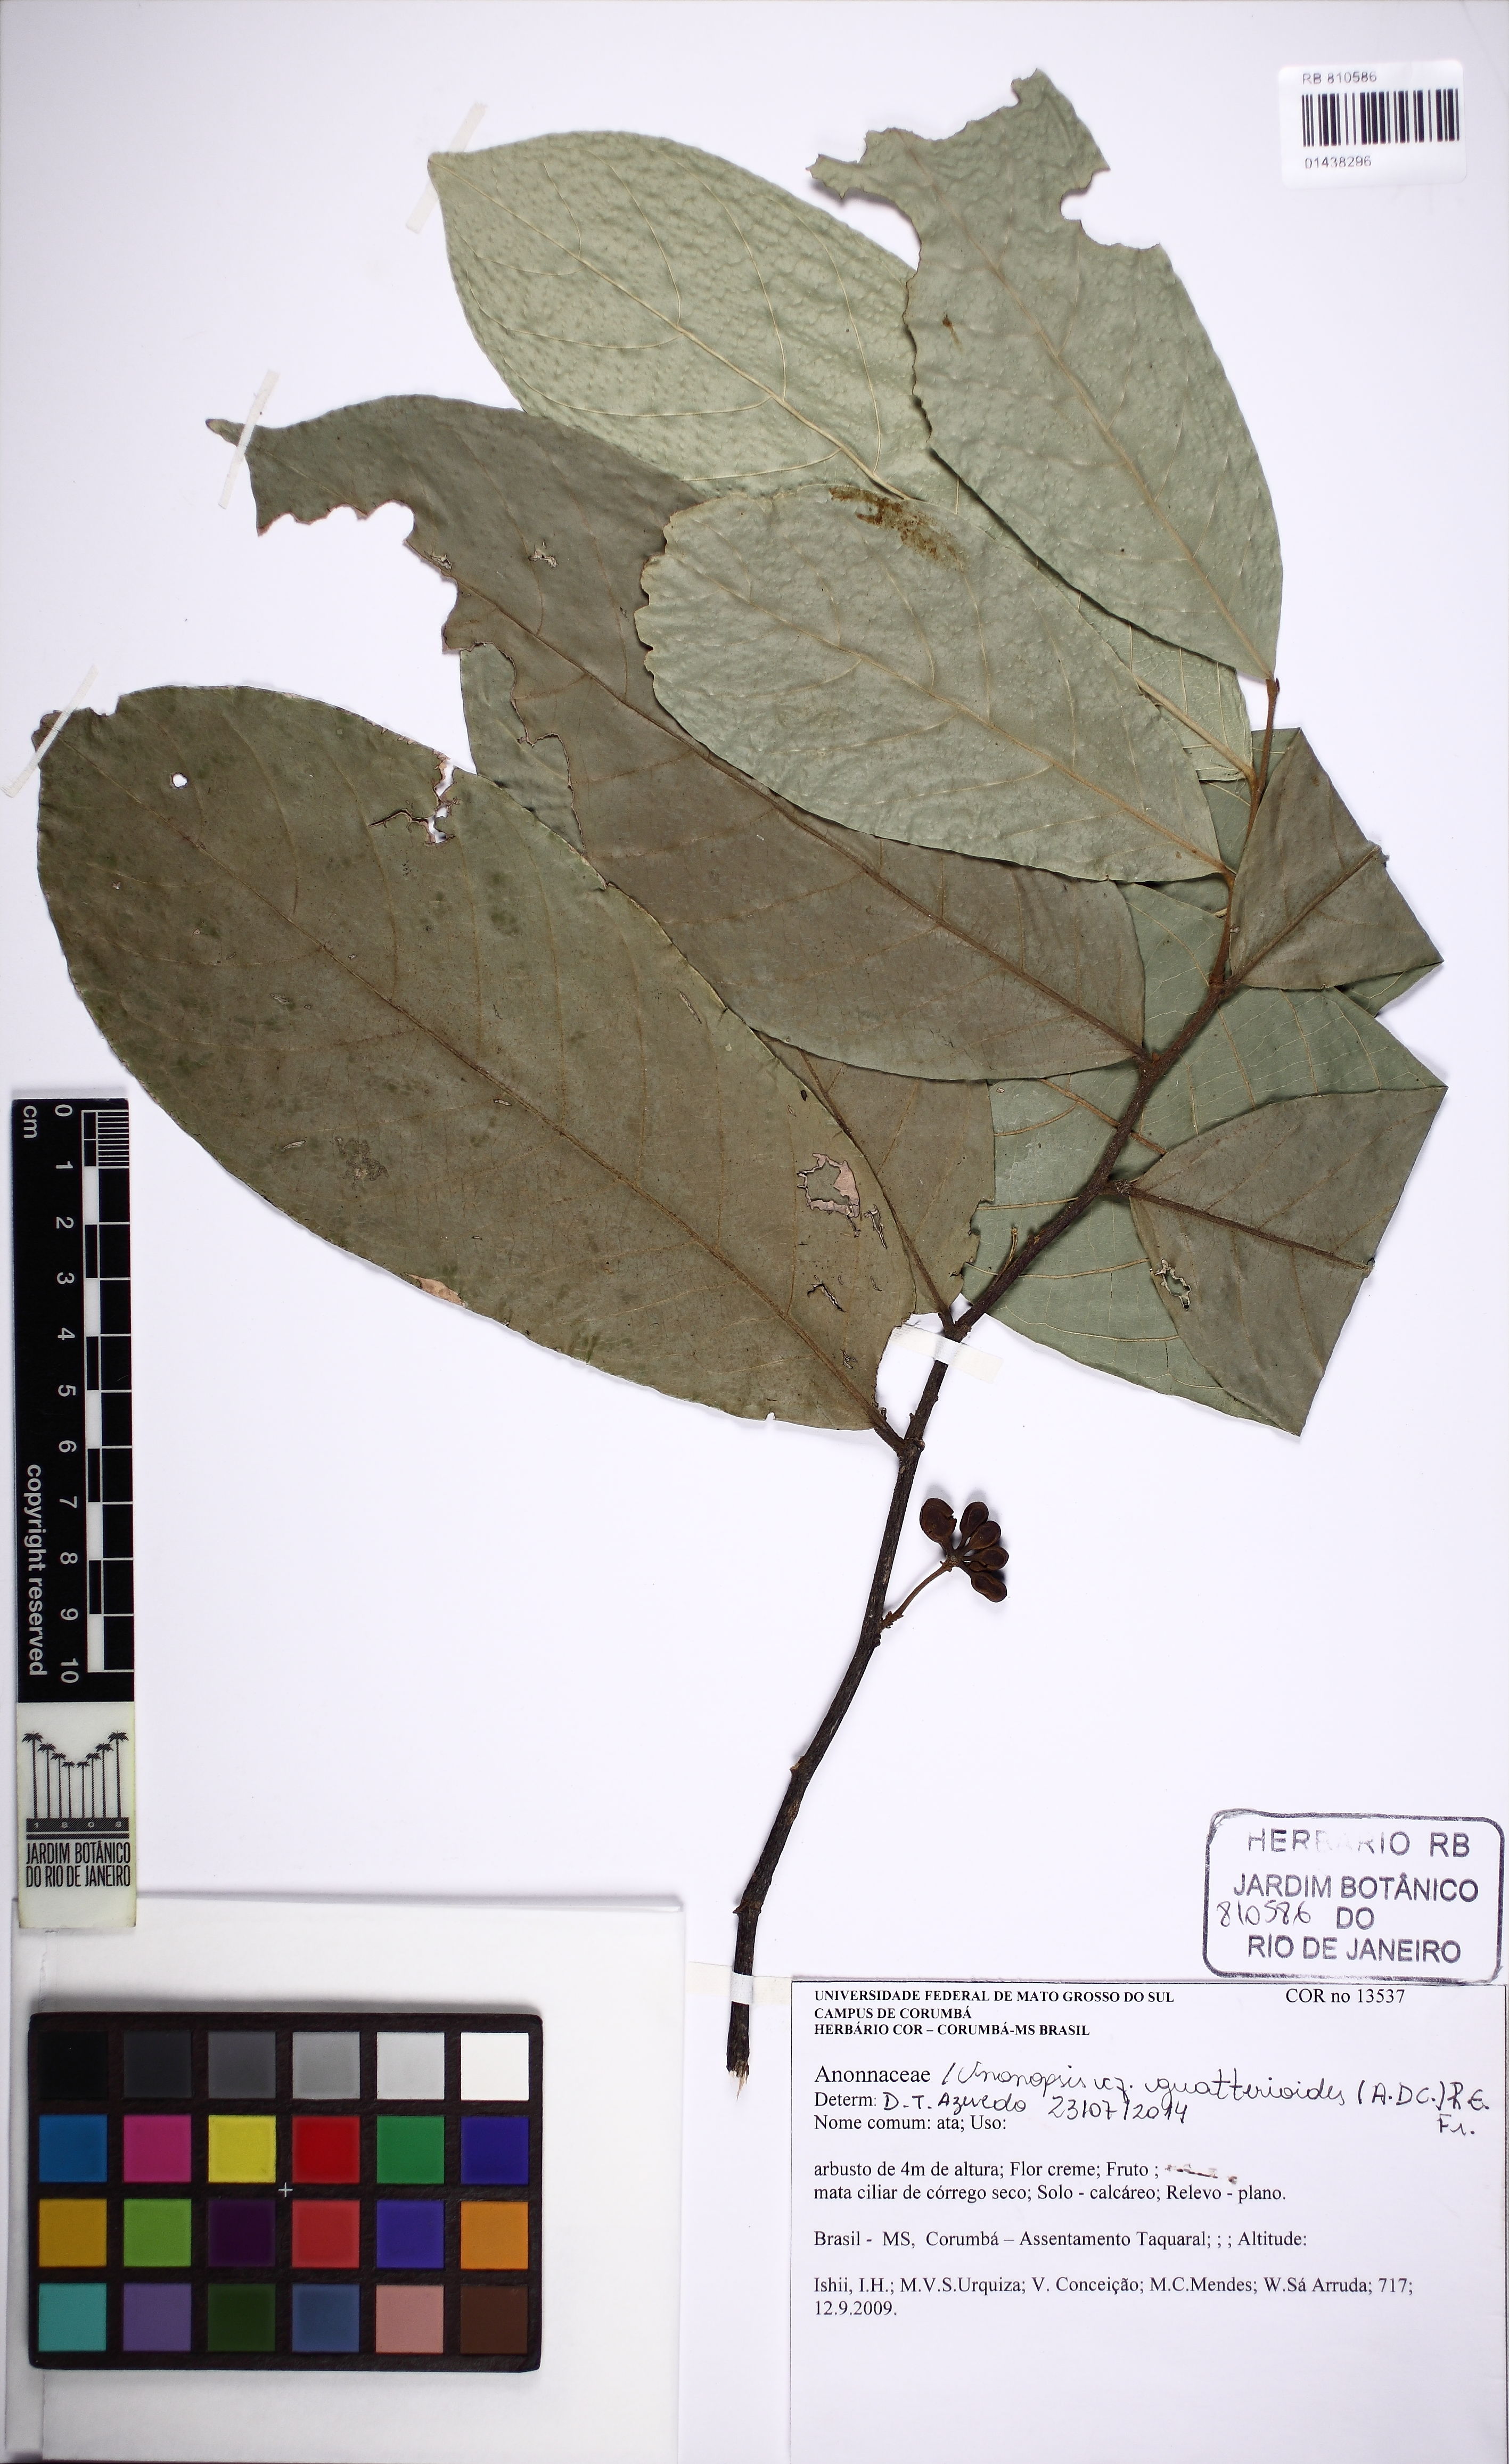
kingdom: Plantae
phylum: Tracheophyta
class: Magnoliopsida
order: Magnoliales
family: Annonaceae
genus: Unonopsis
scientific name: Unonopsis guatterioides
